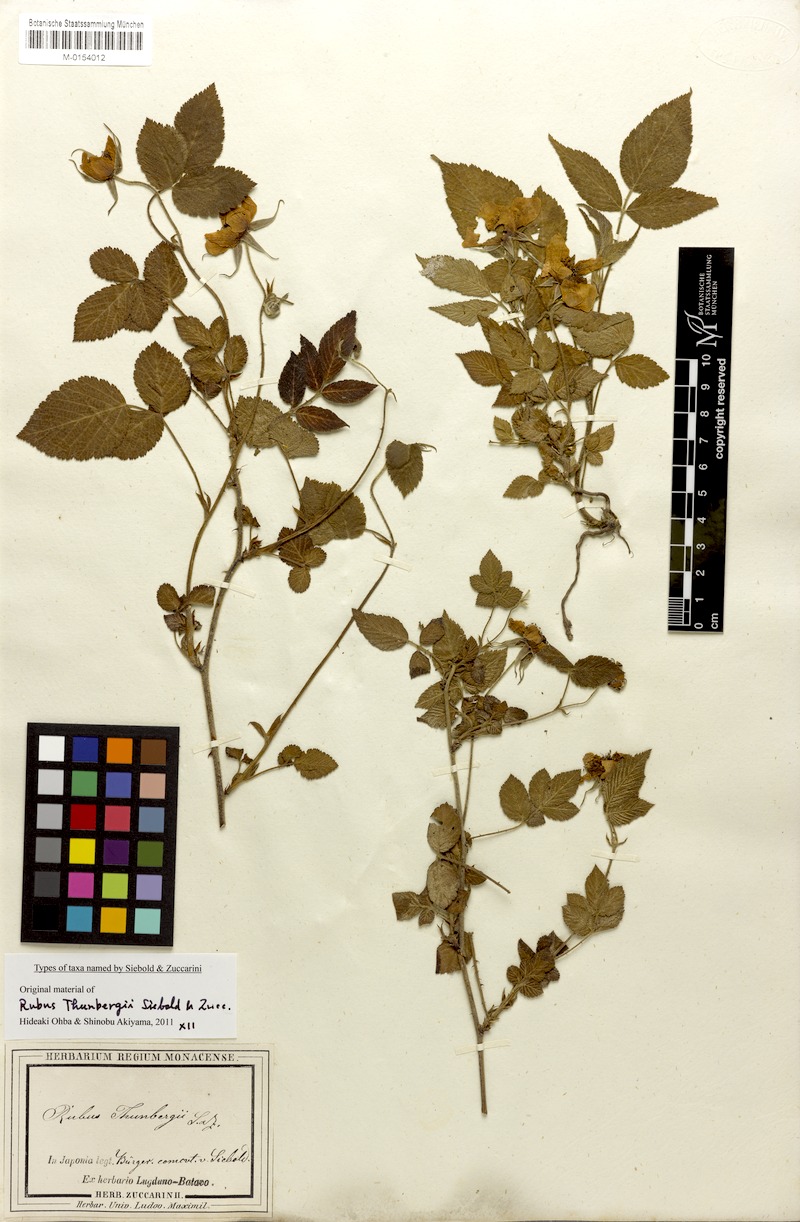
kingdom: Plantae
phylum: Tracheophyta
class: Magnoliopsida
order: Rosales
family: Rosaceae
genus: Rubus
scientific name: Rubus hirsutus
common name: Hirsute raspberry
